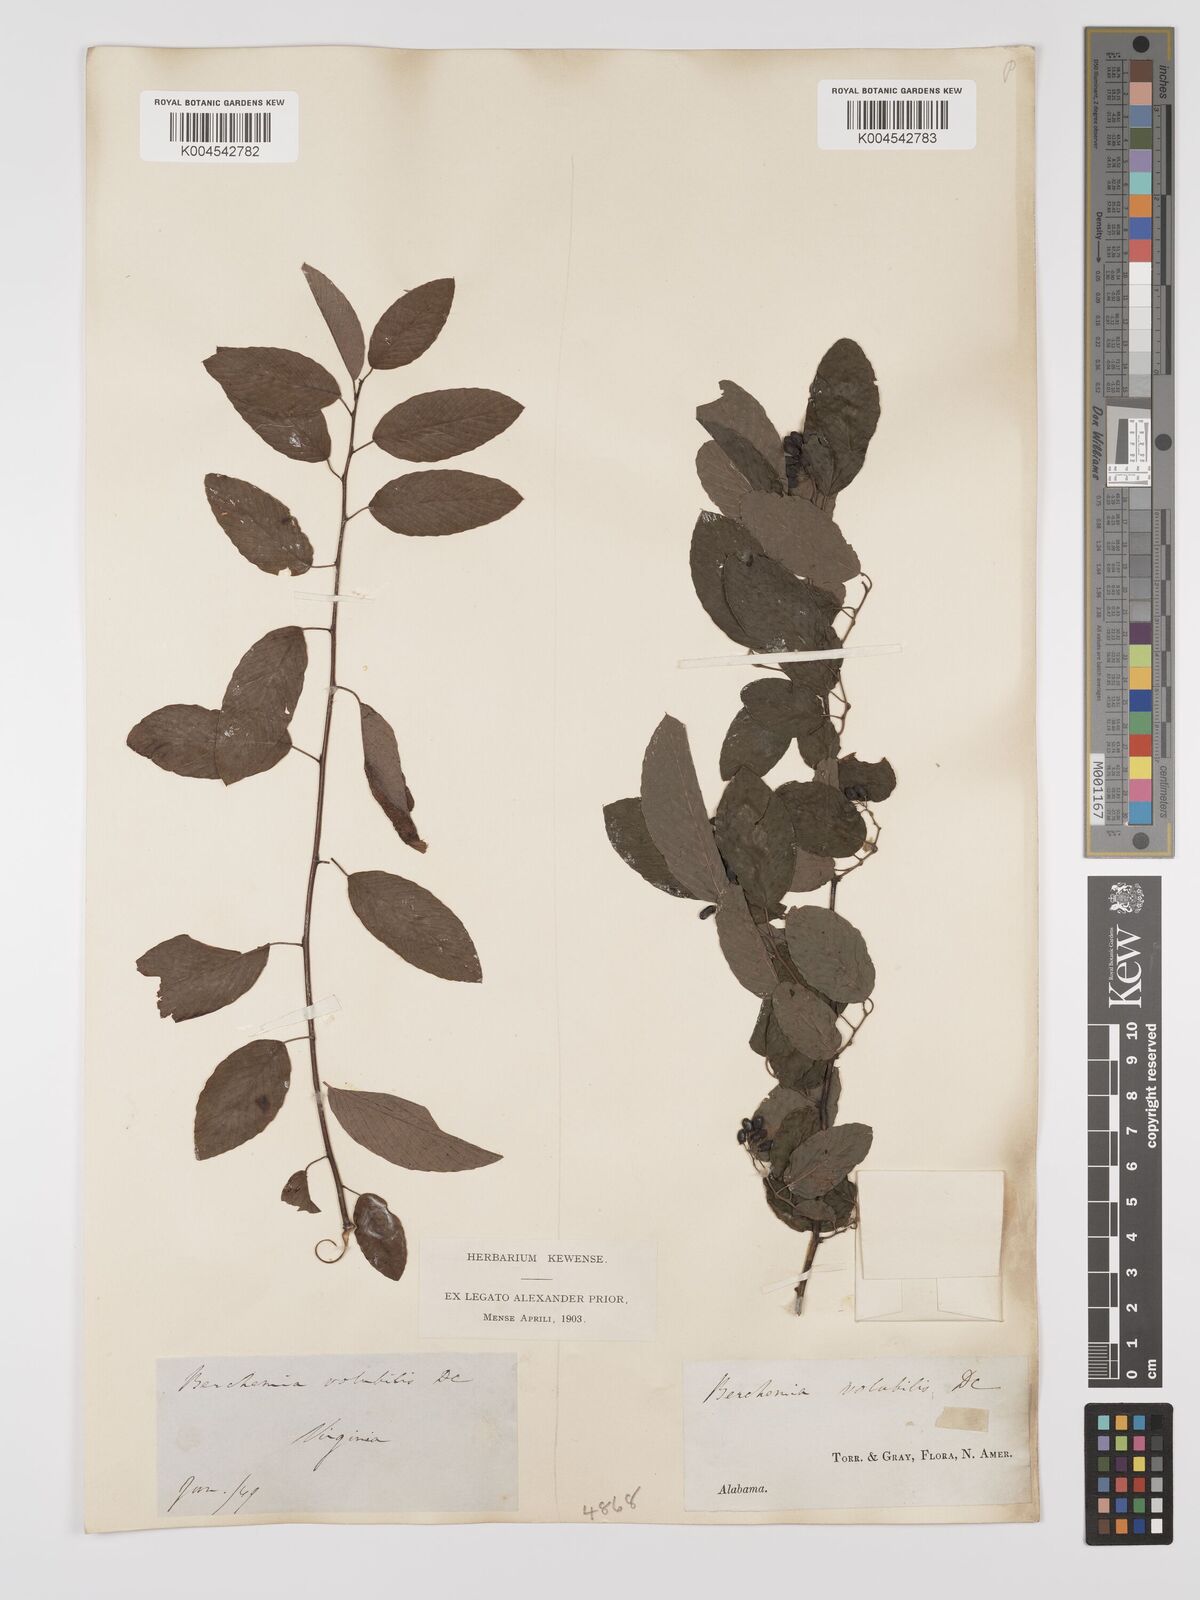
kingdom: Plantae
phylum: Tracheophyta
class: Magnoliopsida
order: Rosales
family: Rhamnaceae
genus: Berchemia
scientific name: Berchemia scandens
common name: Supplejack
